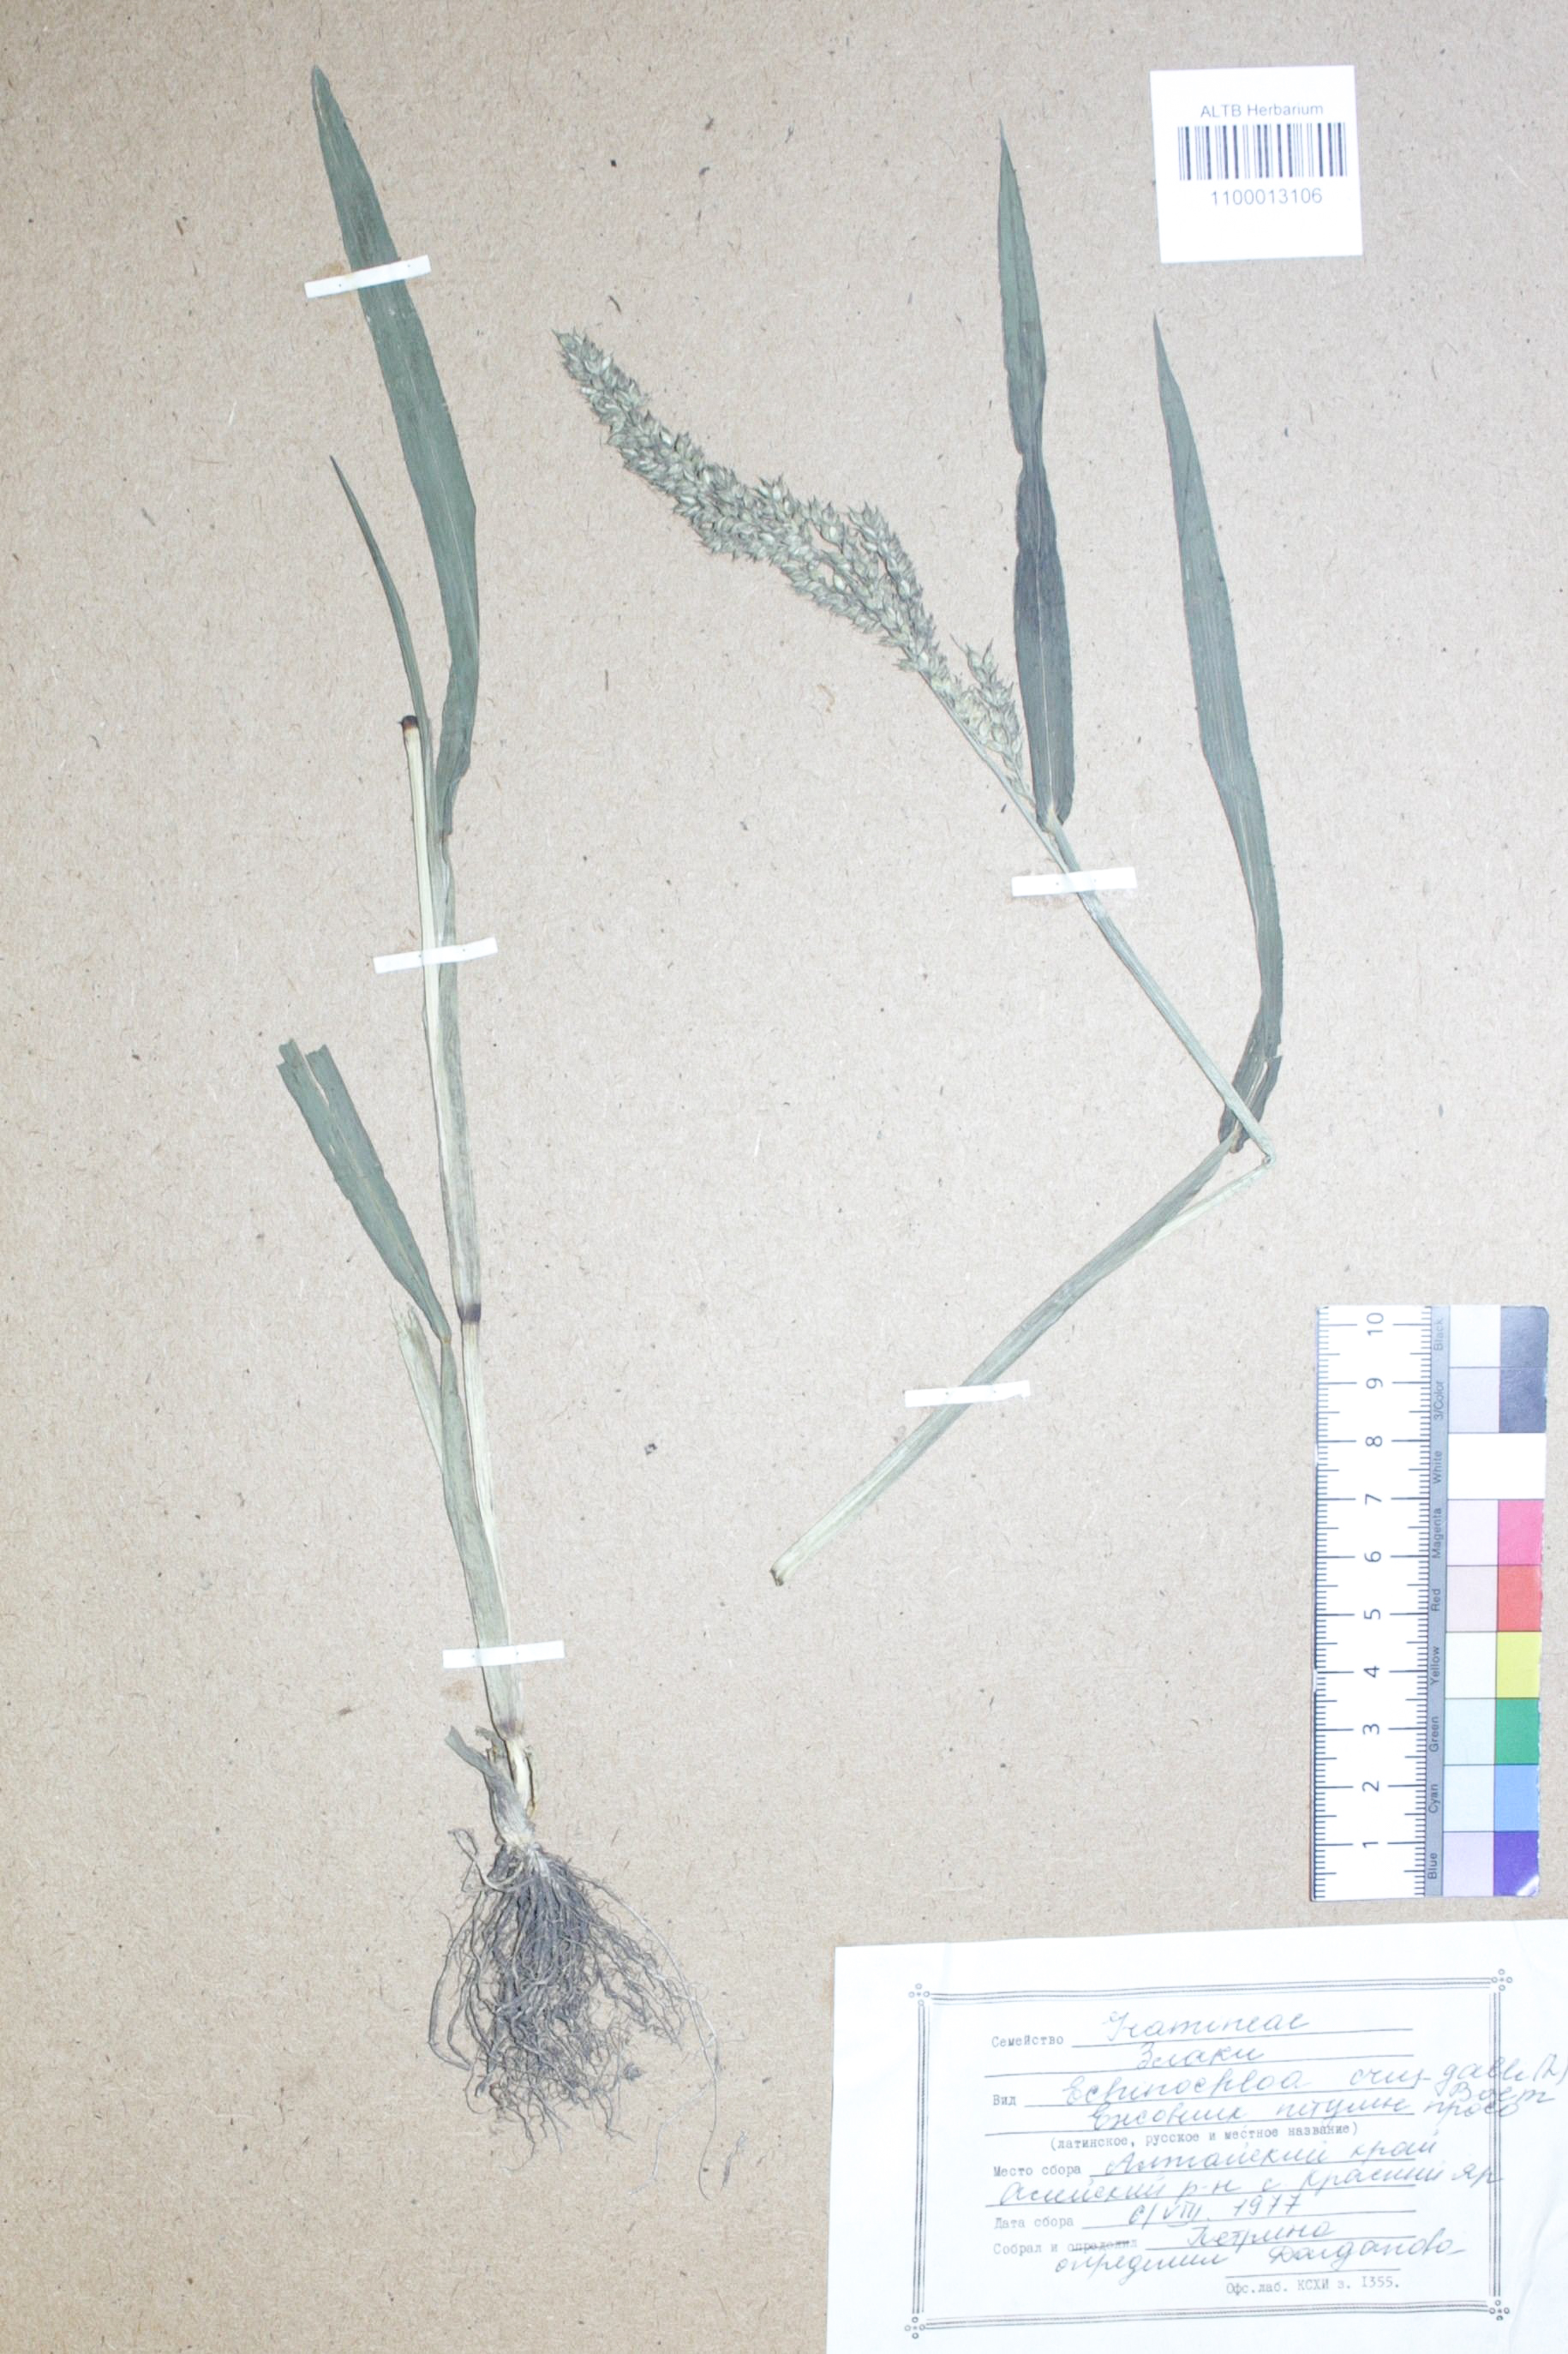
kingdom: Plantae
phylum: Tracheophyta
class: Liliopsida
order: Poales
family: Poaceae
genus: Echinochloa
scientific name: Echinochloa crus-galli
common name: Cockspur
